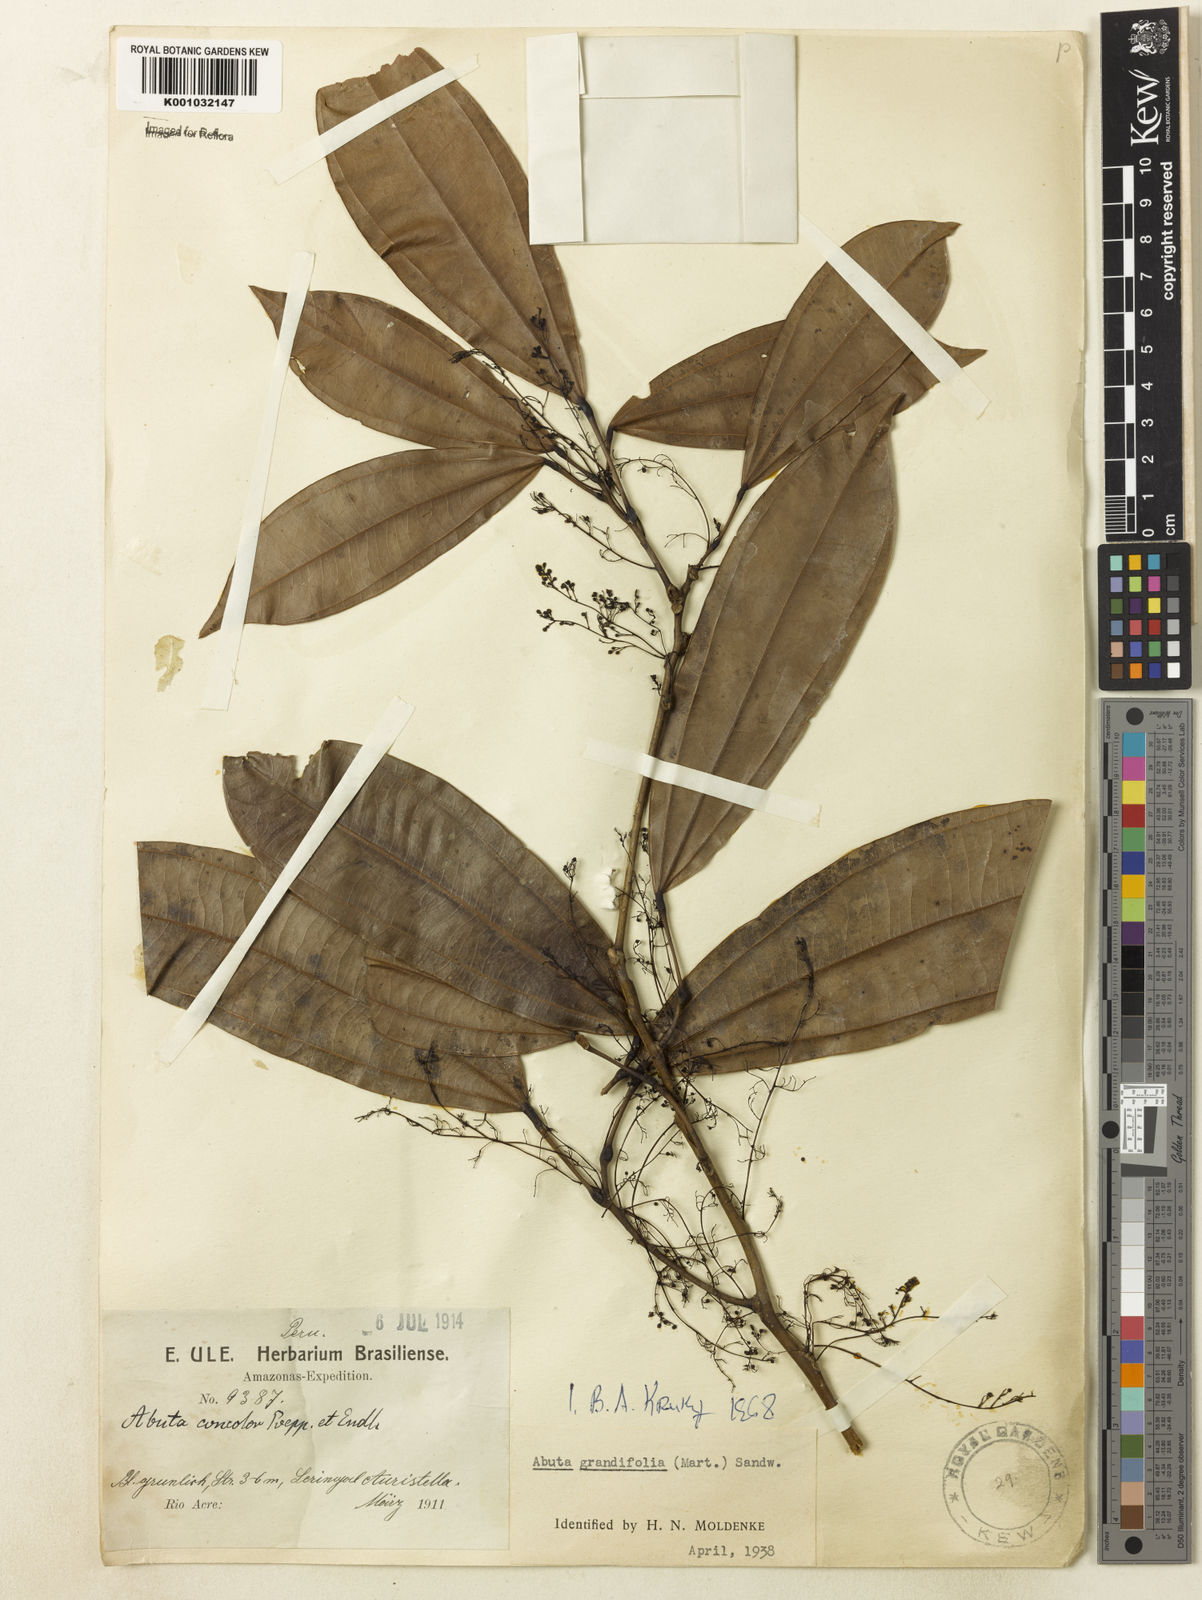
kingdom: Plantae
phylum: Tracheophyta
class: Magnoliopsida
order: Ranunculales
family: Menispermaceae
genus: Abuta
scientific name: Abuta grandifolia
